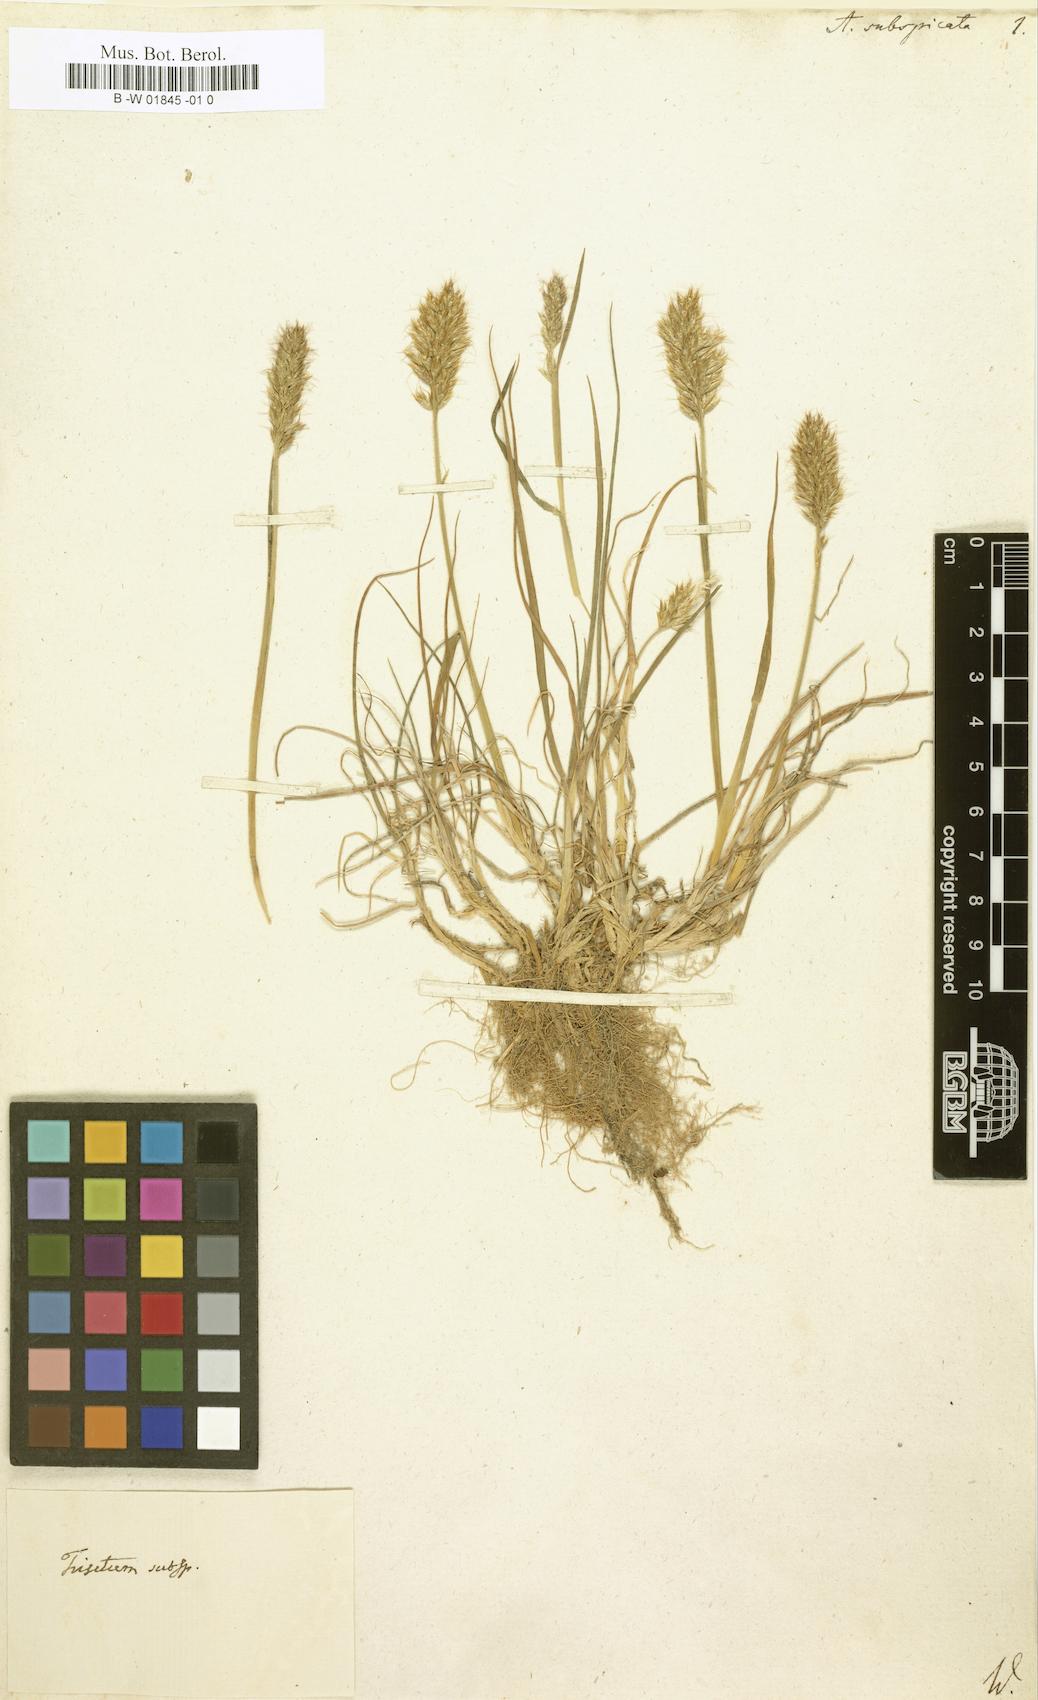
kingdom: Plantae
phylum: Tracheophyta
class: Liliopsida
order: Poales
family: Poaceae
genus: Koeleria
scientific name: Koeleria spicata
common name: Mountain trisetum
